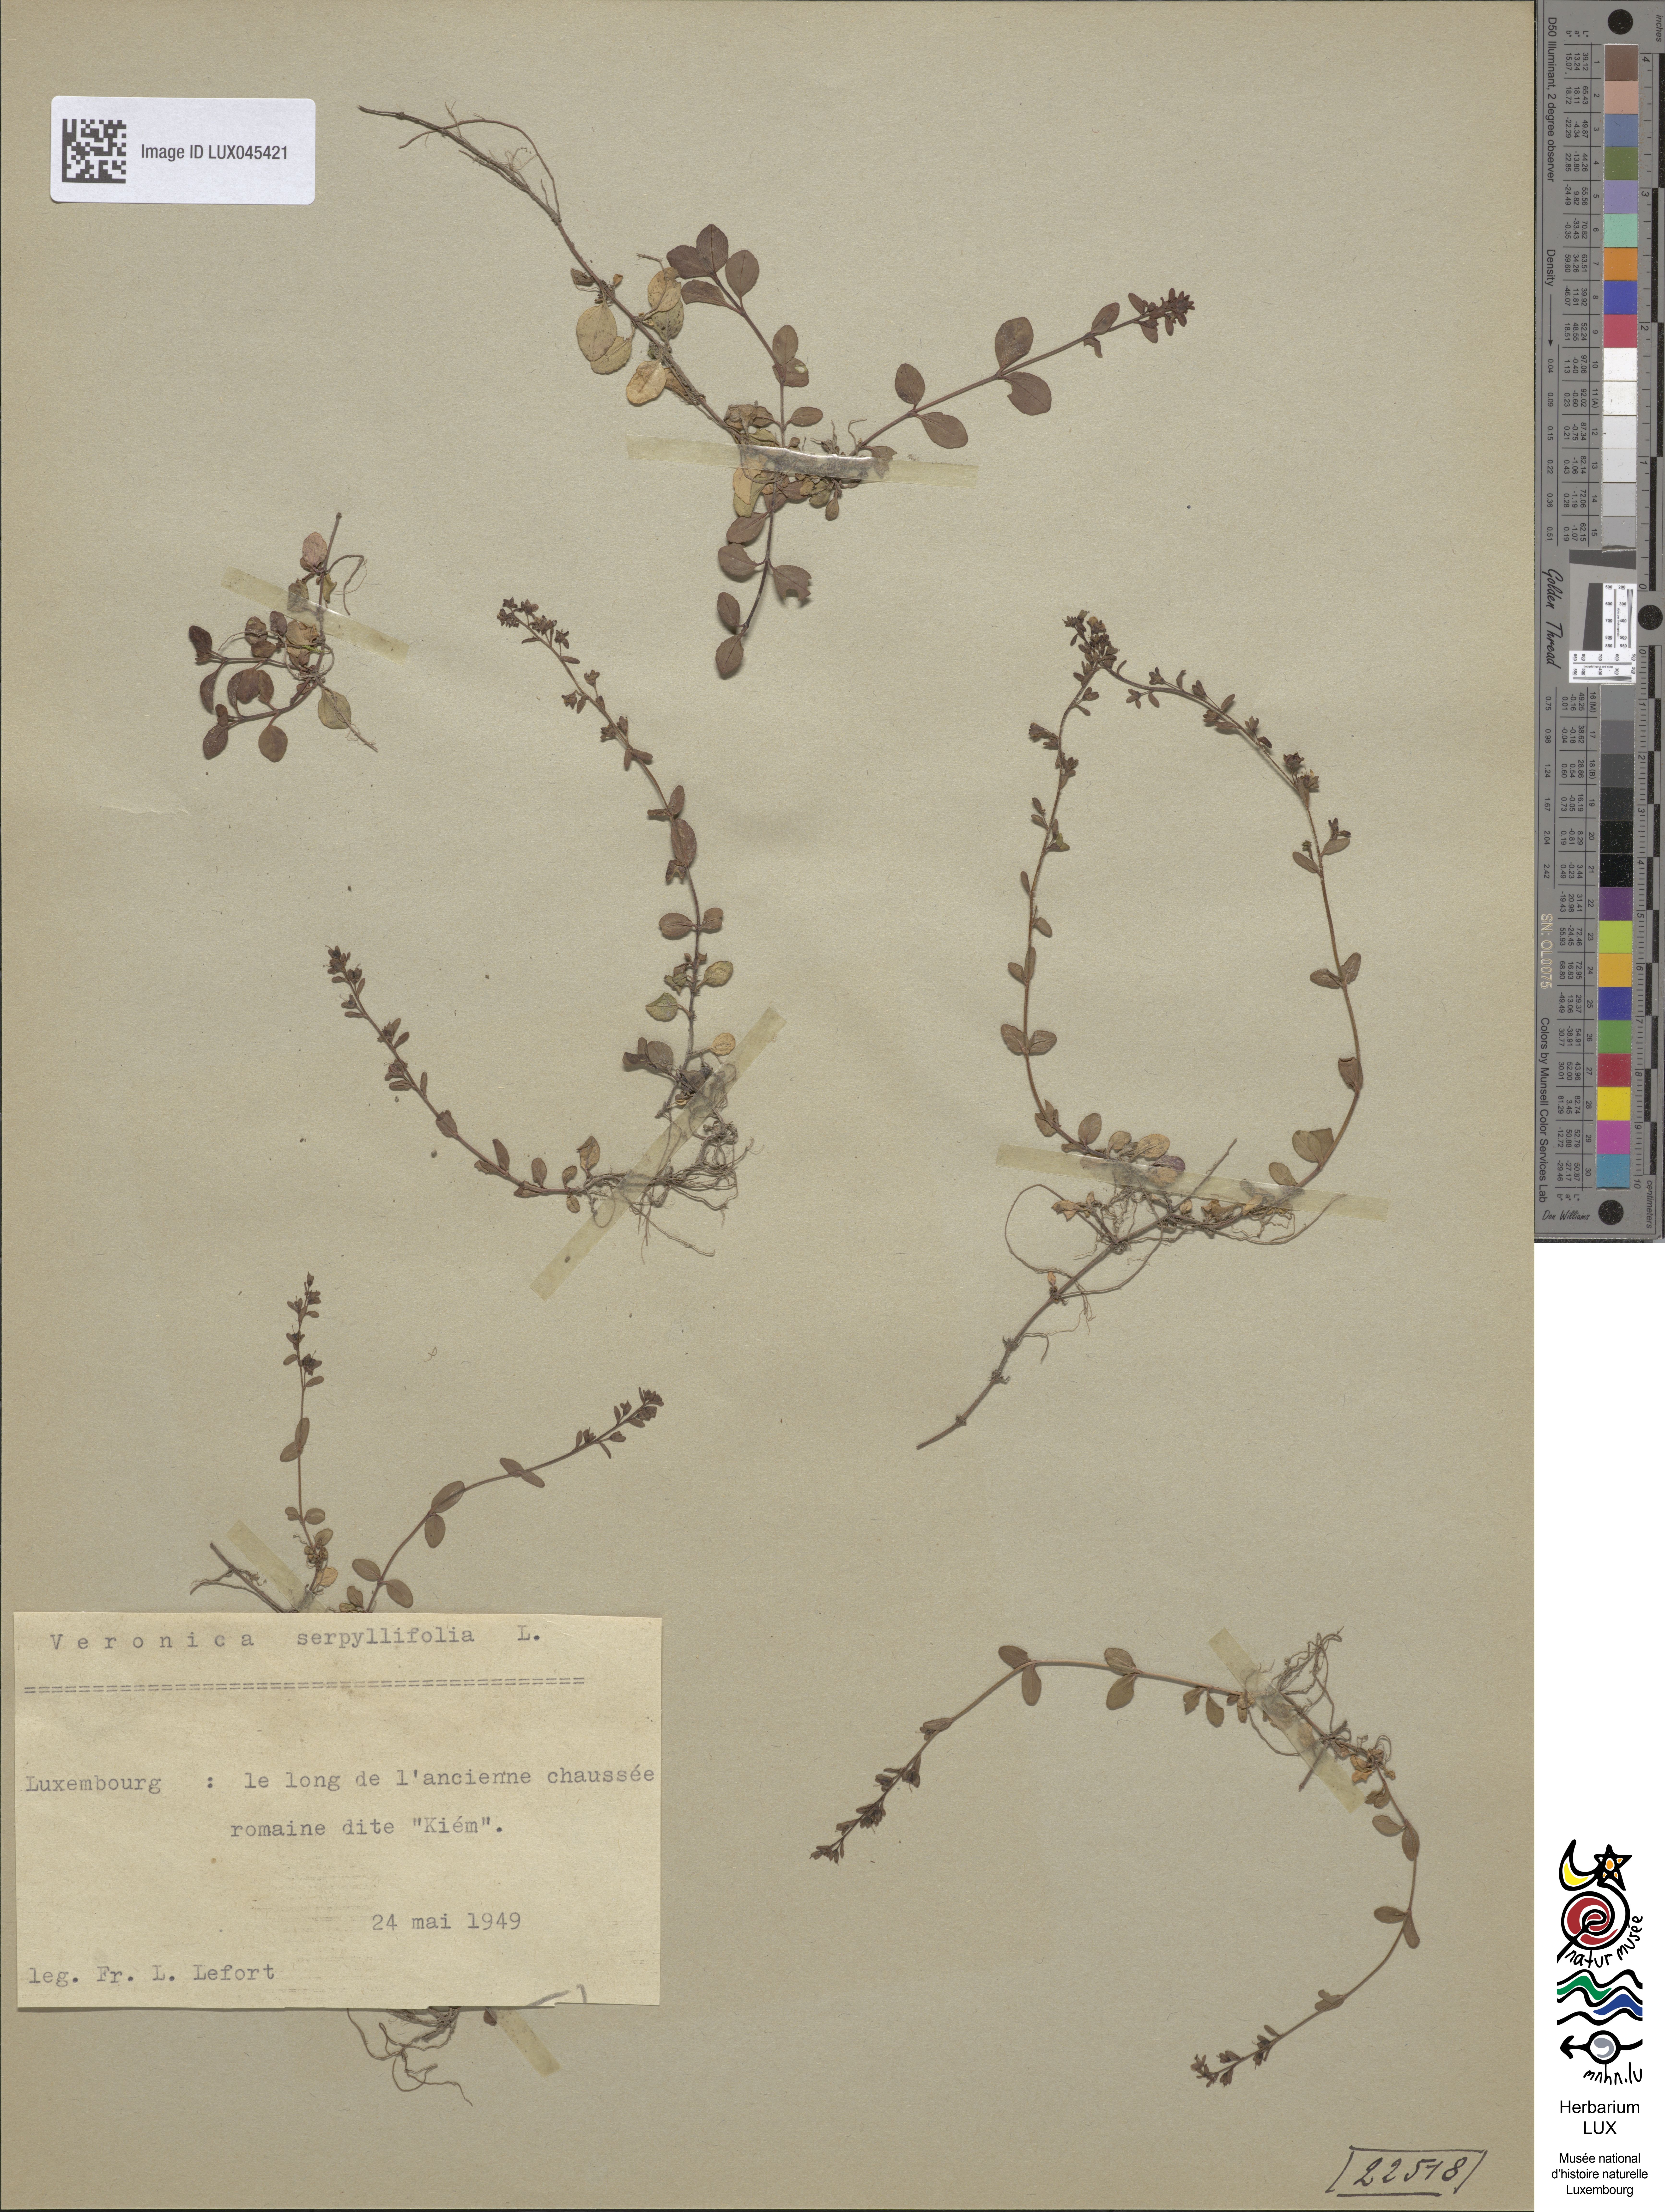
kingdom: Plantae
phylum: Tracheophyta
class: Magnoliopsida
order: Lamiales
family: Plantaginaceae
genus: Veronica
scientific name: Veronica serpyllifolia
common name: Thyme-leaved speedwell
